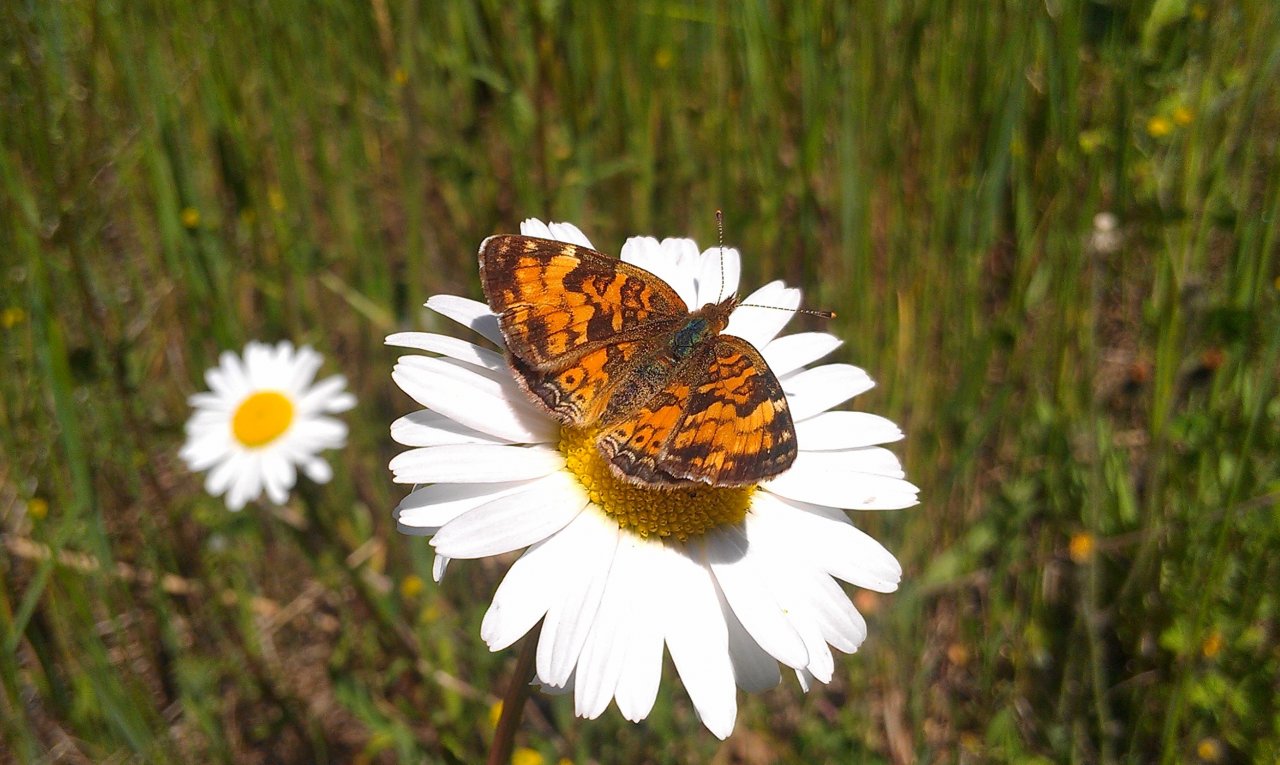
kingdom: Animalia
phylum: Arthropoda
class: Insecta
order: Lepidoptera
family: Nymphalidae
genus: Phyciodes
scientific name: Phyciodes tharos
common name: Northern Crescent
